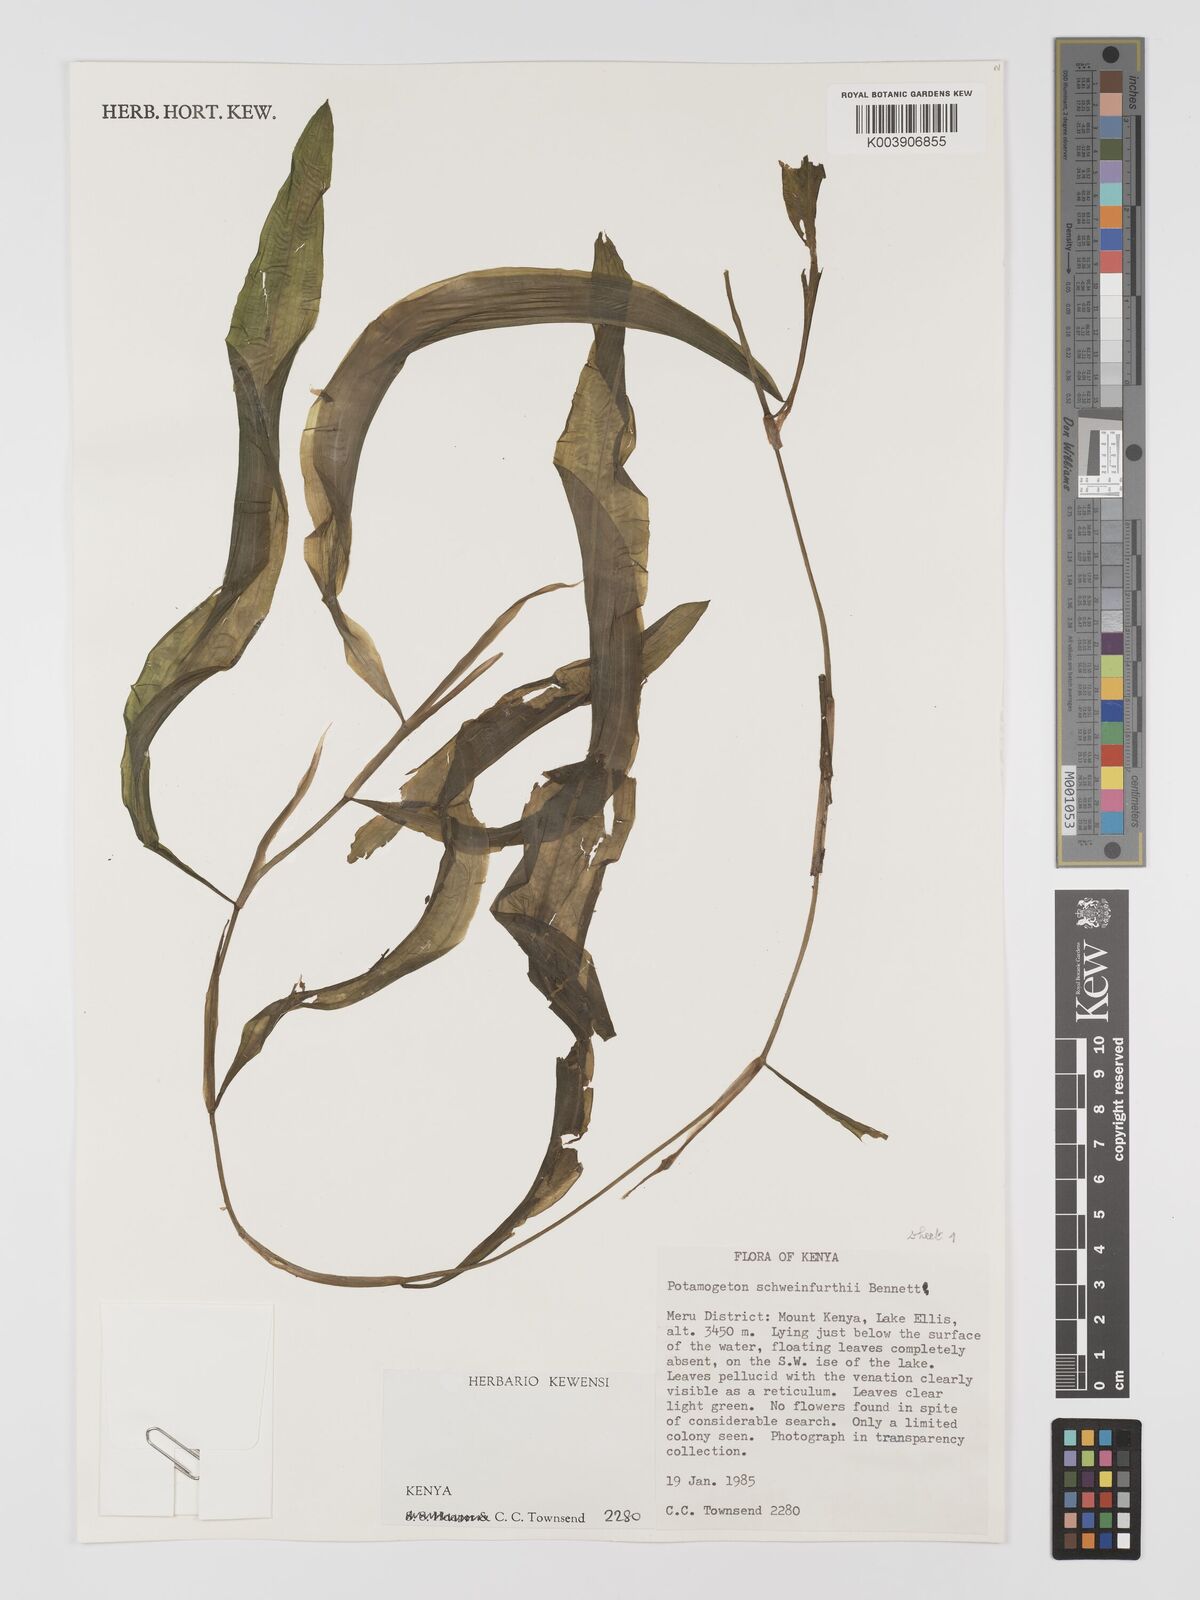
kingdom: Plantae
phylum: Tracheophyta
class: Liliopsida
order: Alismatales
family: Potamogetonaceae
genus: Potamogeton
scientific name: Potamogeton schweinfurthii
